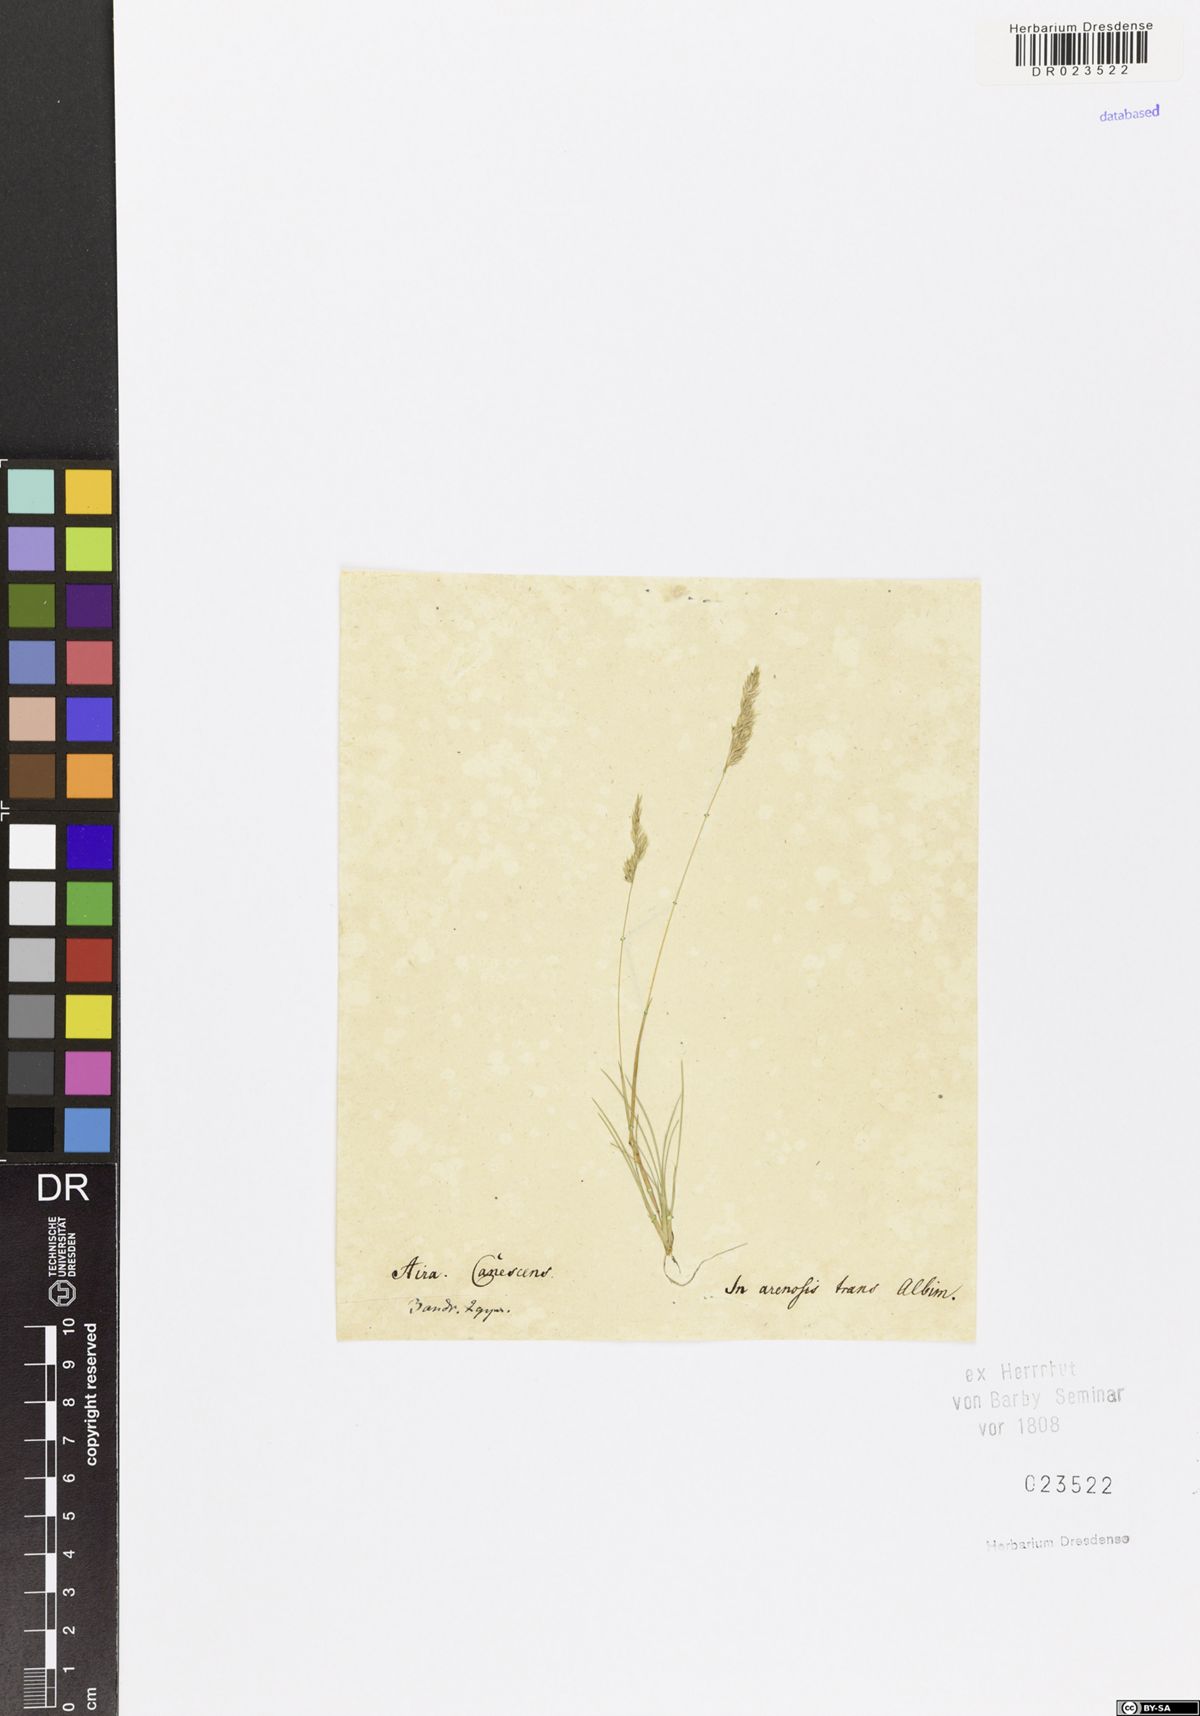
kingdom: Plantae
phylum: Tracheophyta
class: Liliopsida
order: Poales
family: Poaceae
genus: Corynephorus
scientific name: Corynephorus canescens
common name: Grey hair-grass
